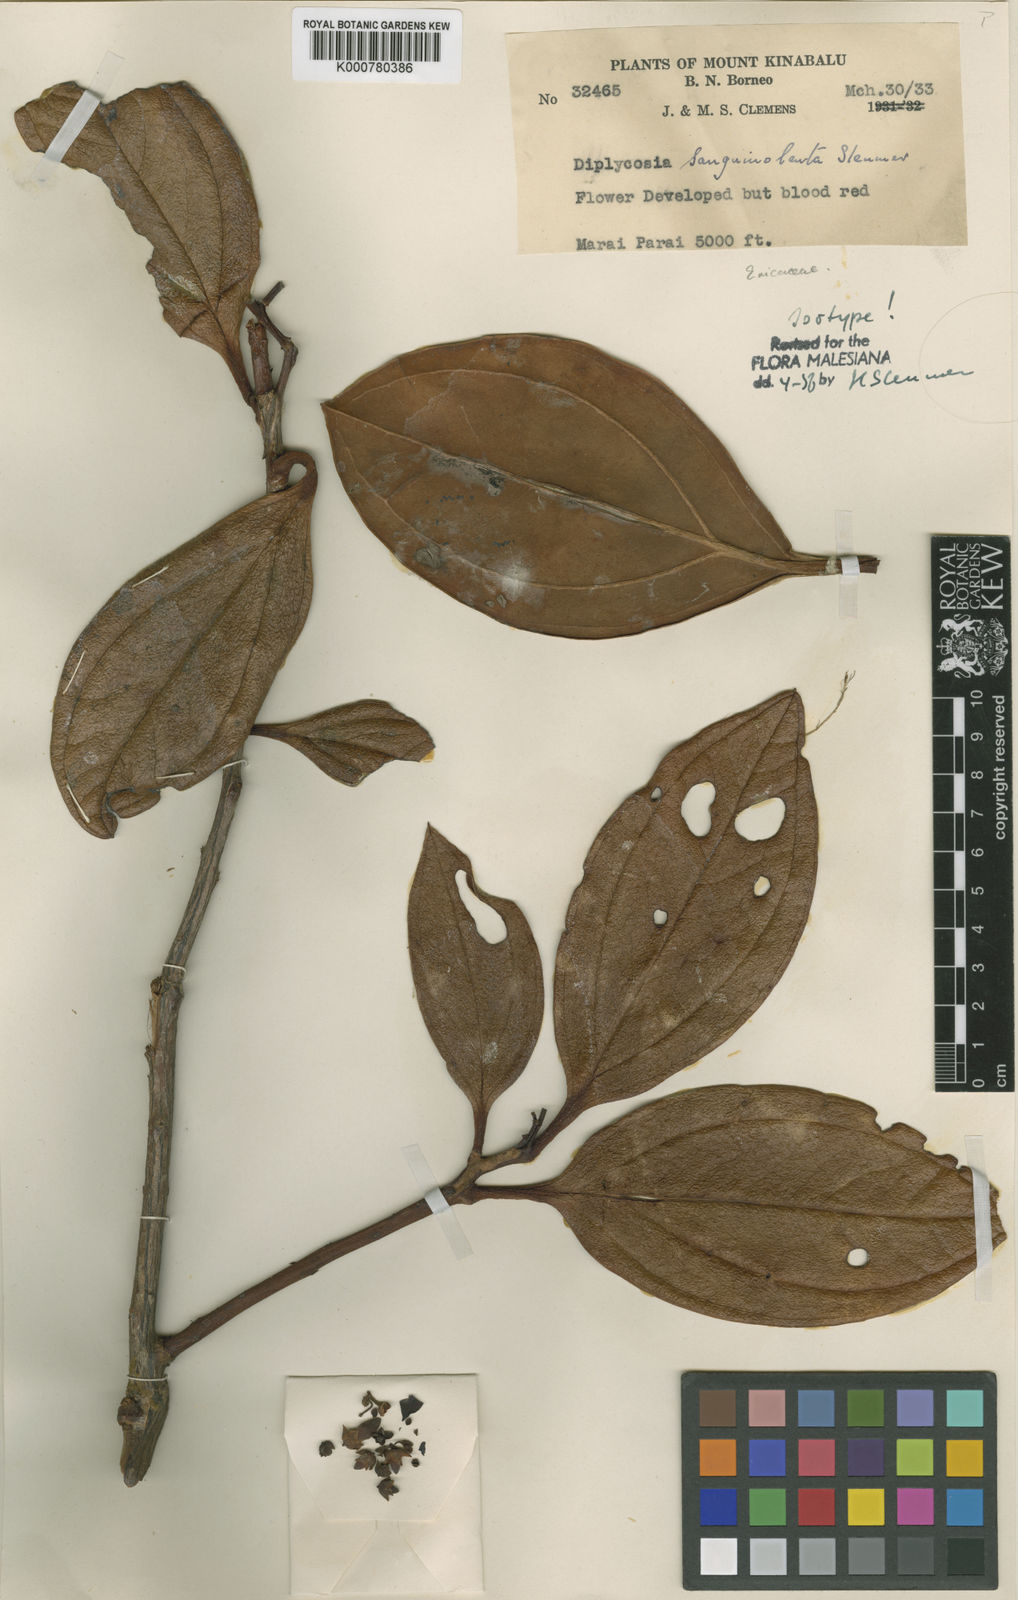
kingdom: Plantae
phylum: Tracheophyta
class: Magnoliopsida
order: Ericales
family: Ericaceae
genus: Gaultheria
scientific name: Gaultheria sanguinolenta
